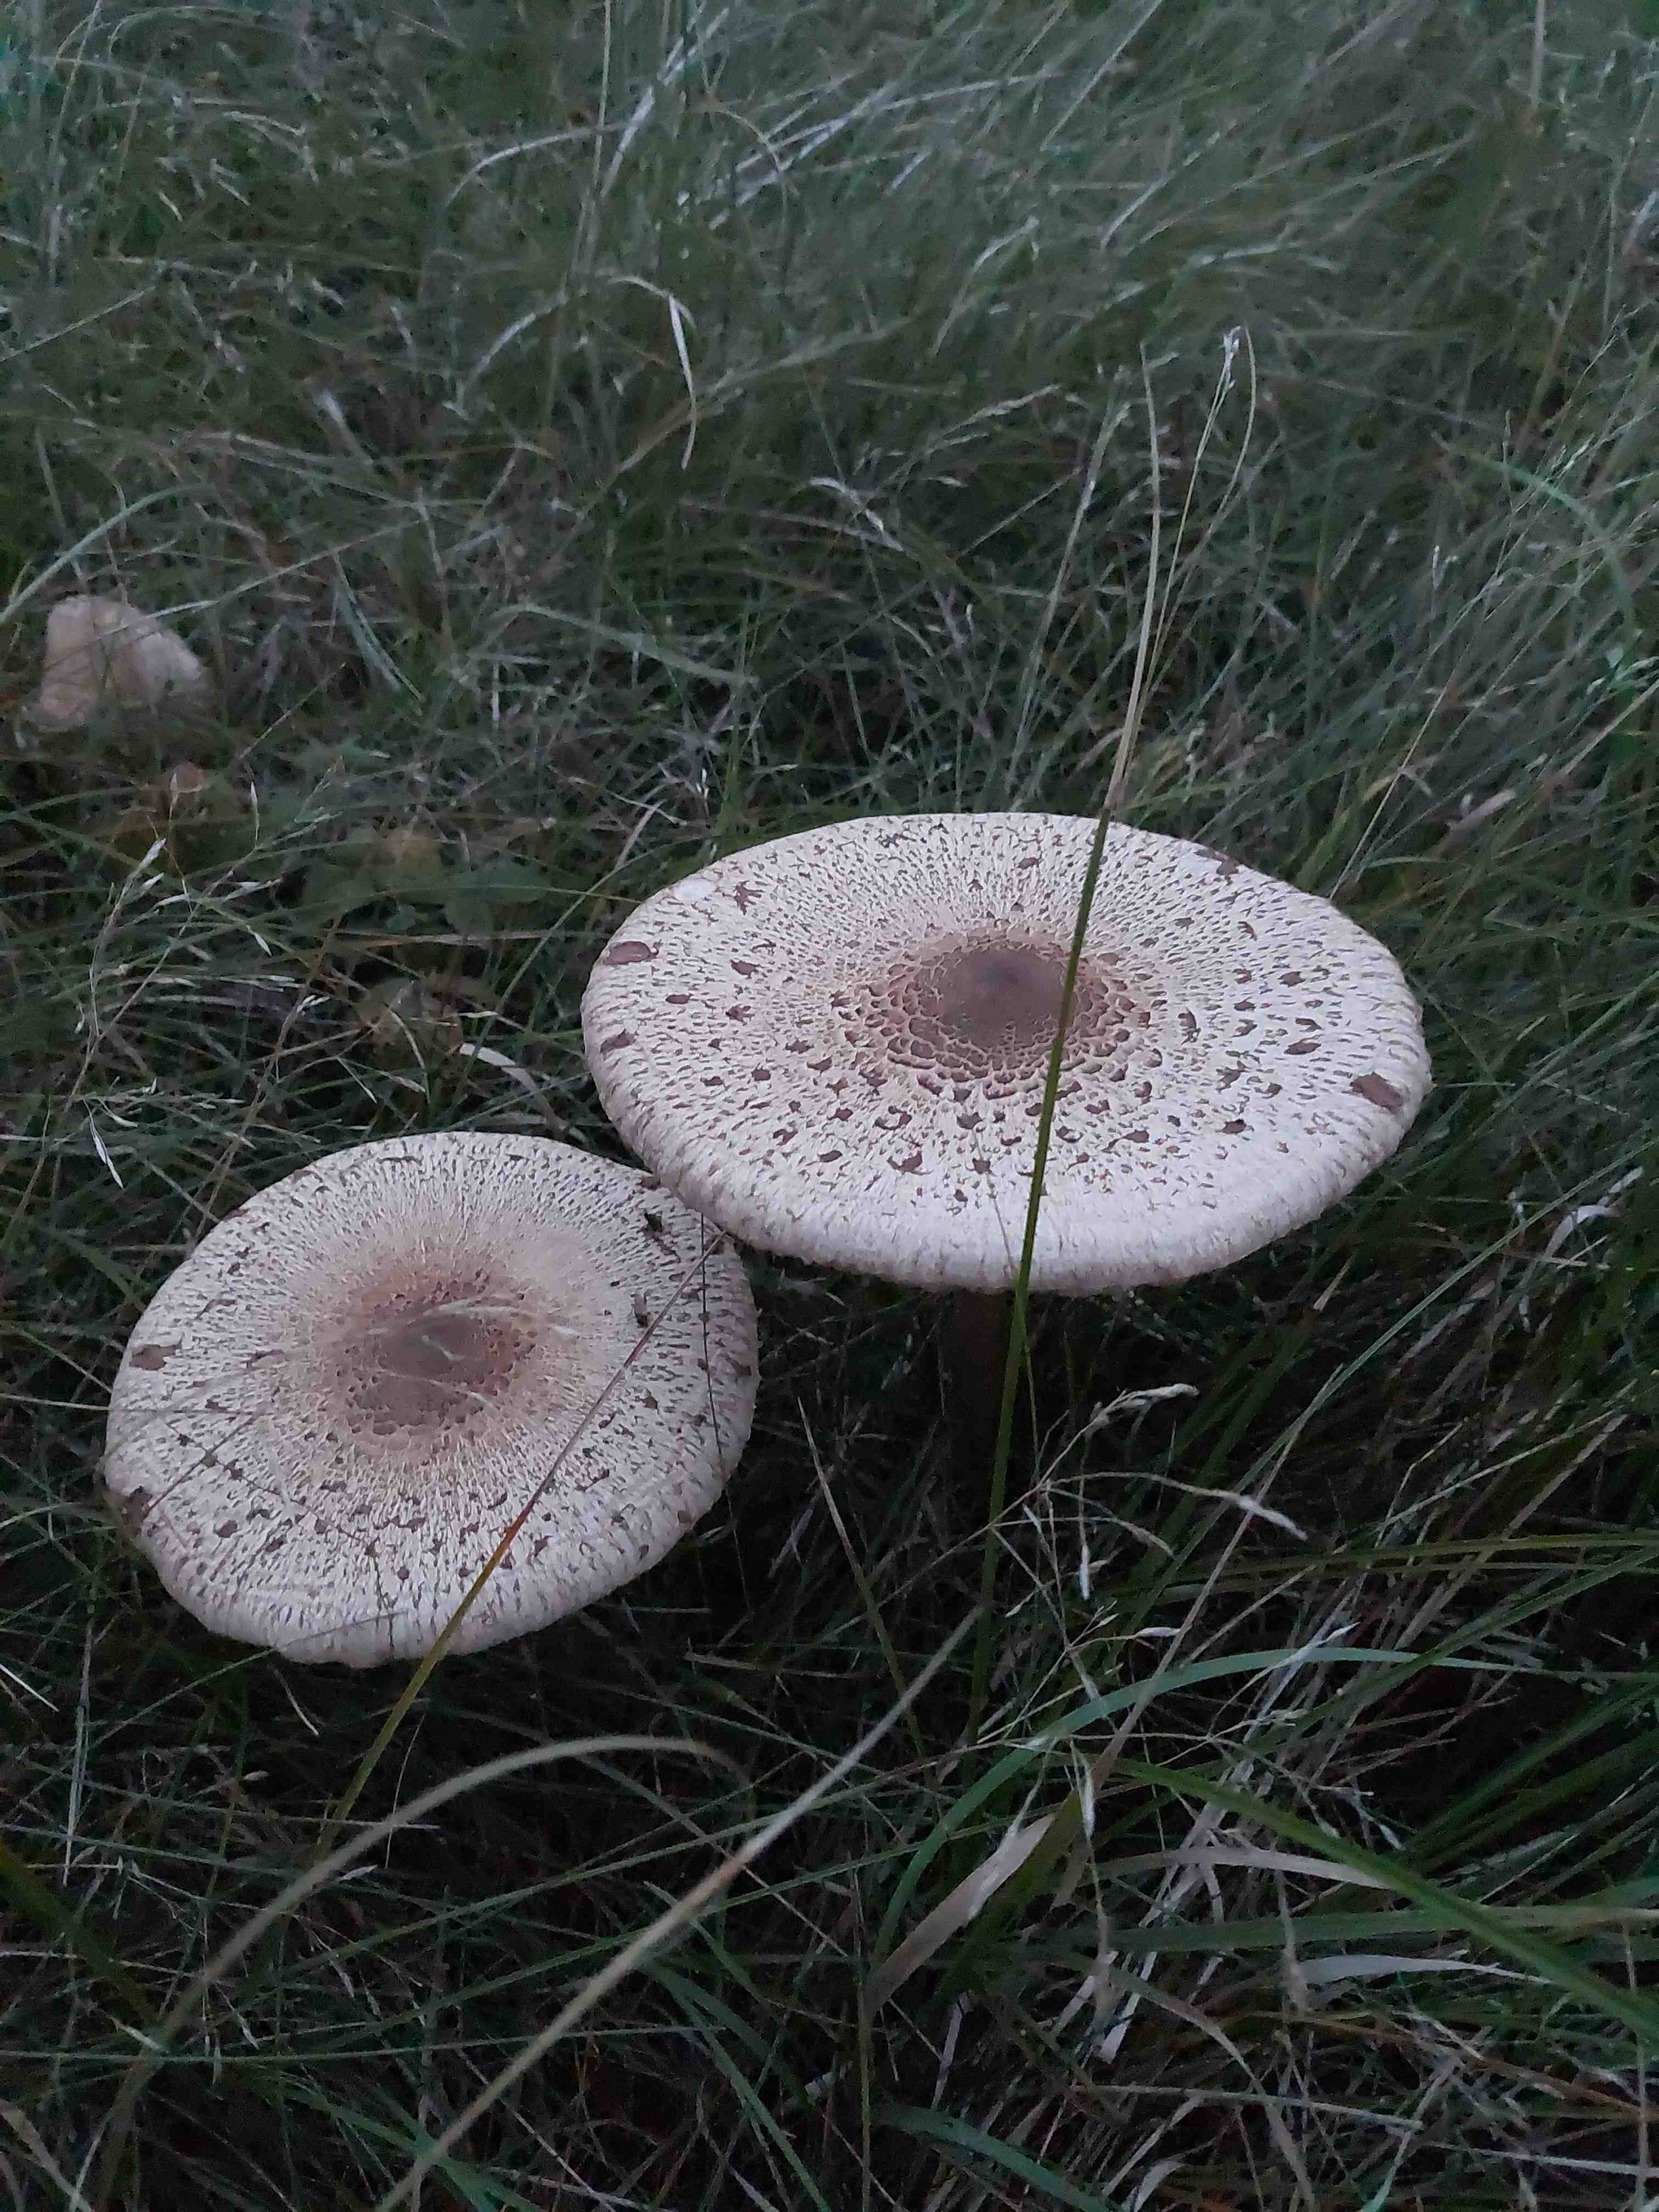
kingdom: Fungi
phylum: Basidiomycota
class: Agaricomycetes
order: Agaricales
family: Agaricaceae
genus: Macrolepiota
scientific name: Macrolepiota procera
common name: stor kæmpeparasolhat
